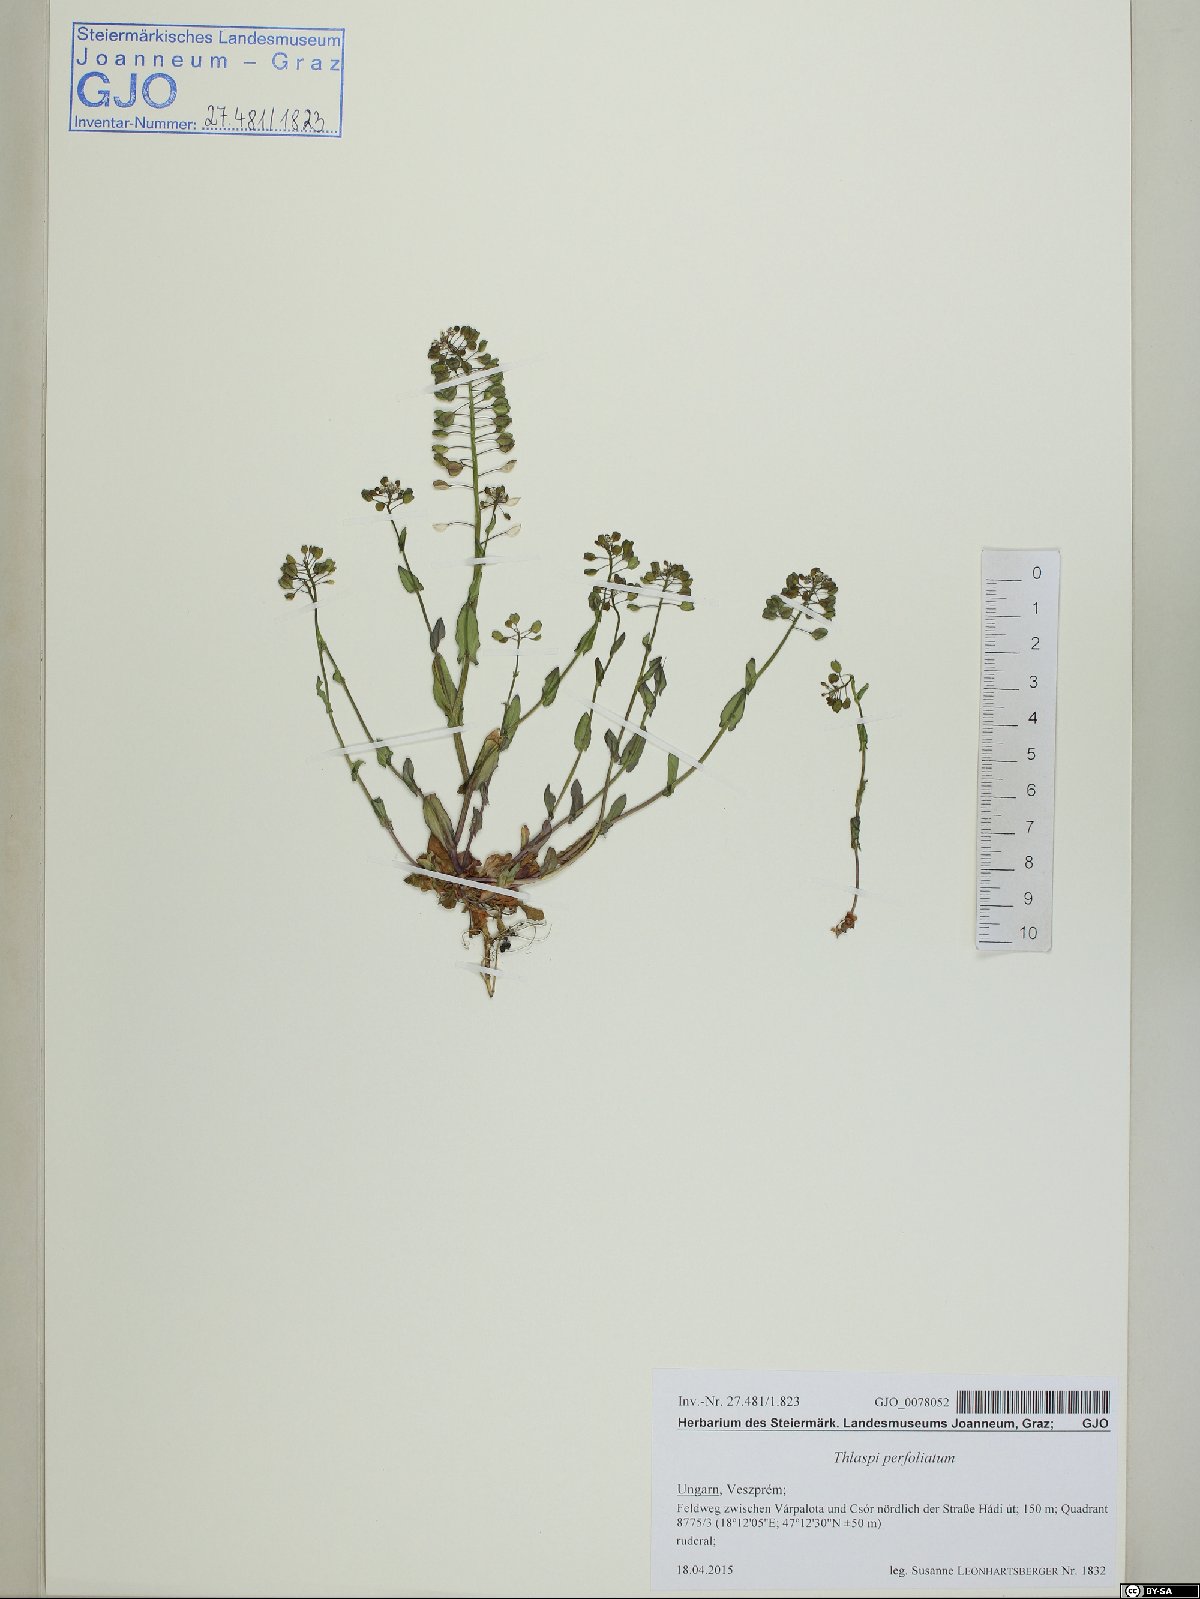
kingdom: Plantae
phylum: Tracheophyta
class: Magnoliopsida
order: Brassicales
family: Brassicaceae
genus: Noccaea
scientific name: Noccaea perfoliata
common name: Perfoliate pennycress
